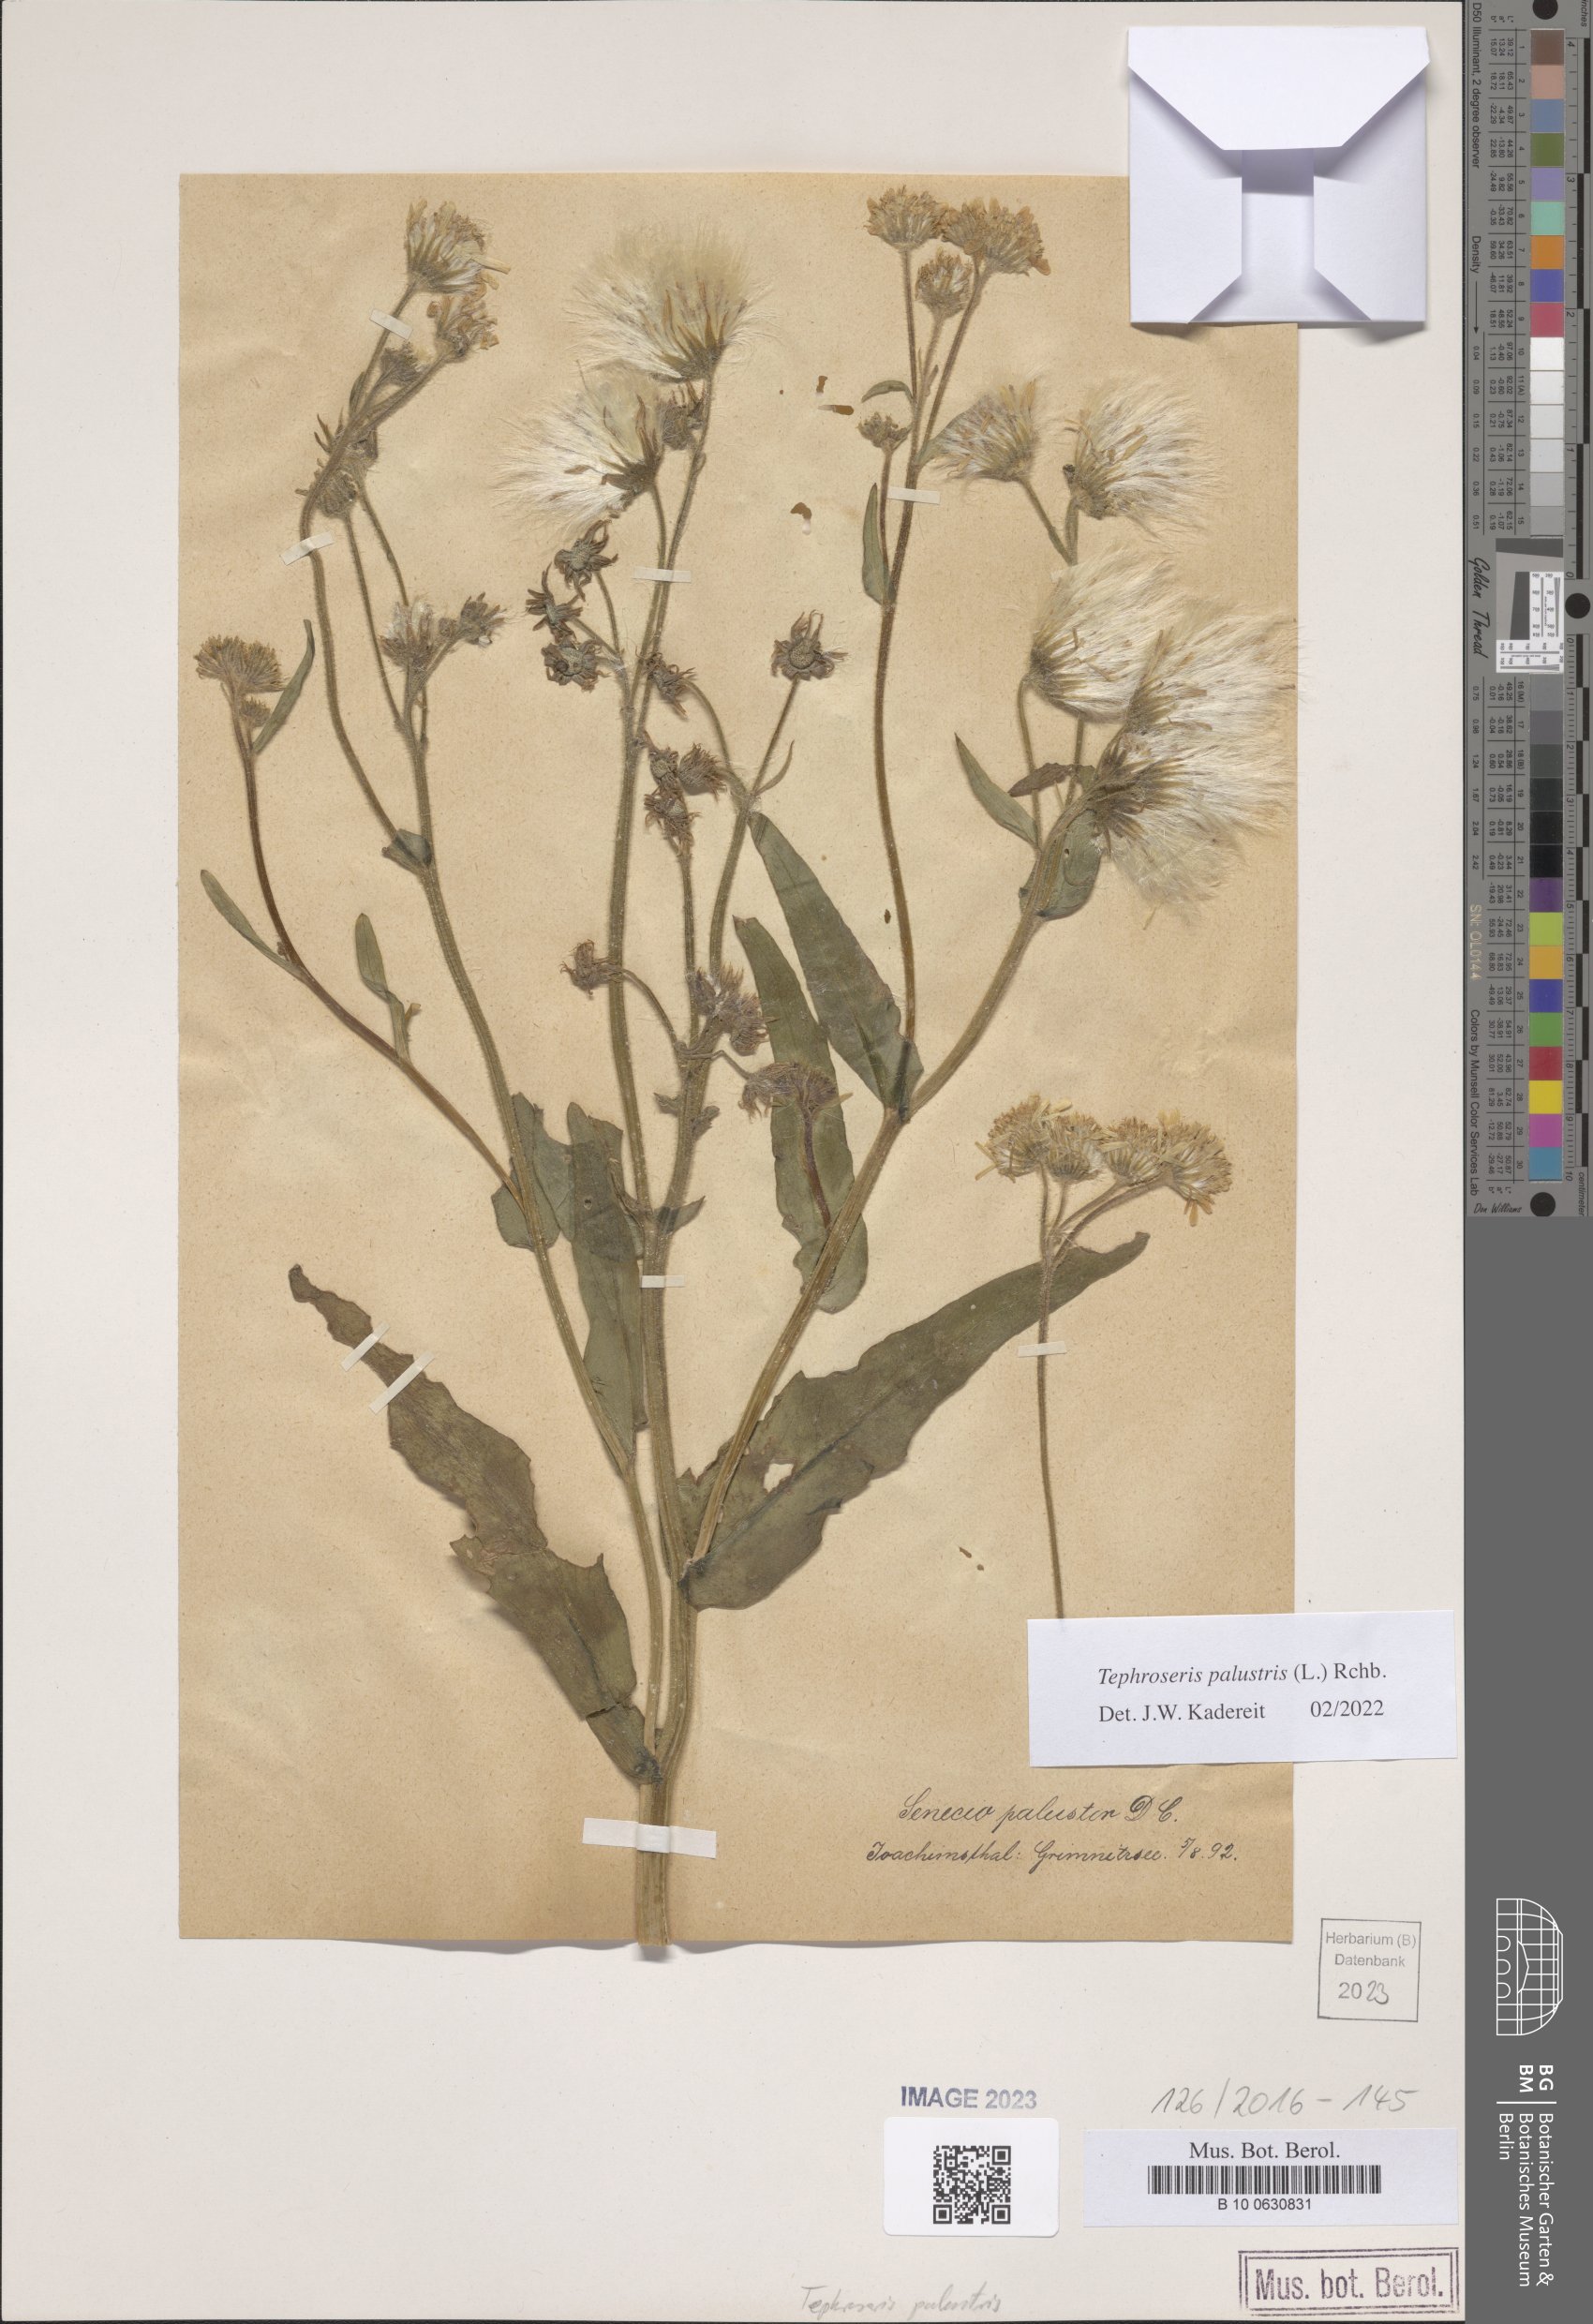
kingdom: Plantae
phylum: Tracheophyta
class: Magnoliopsida
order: Asterales
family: Asteraceae
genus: Tephroseris
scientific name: Tephroseris palustris
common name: Marsh fleawort
